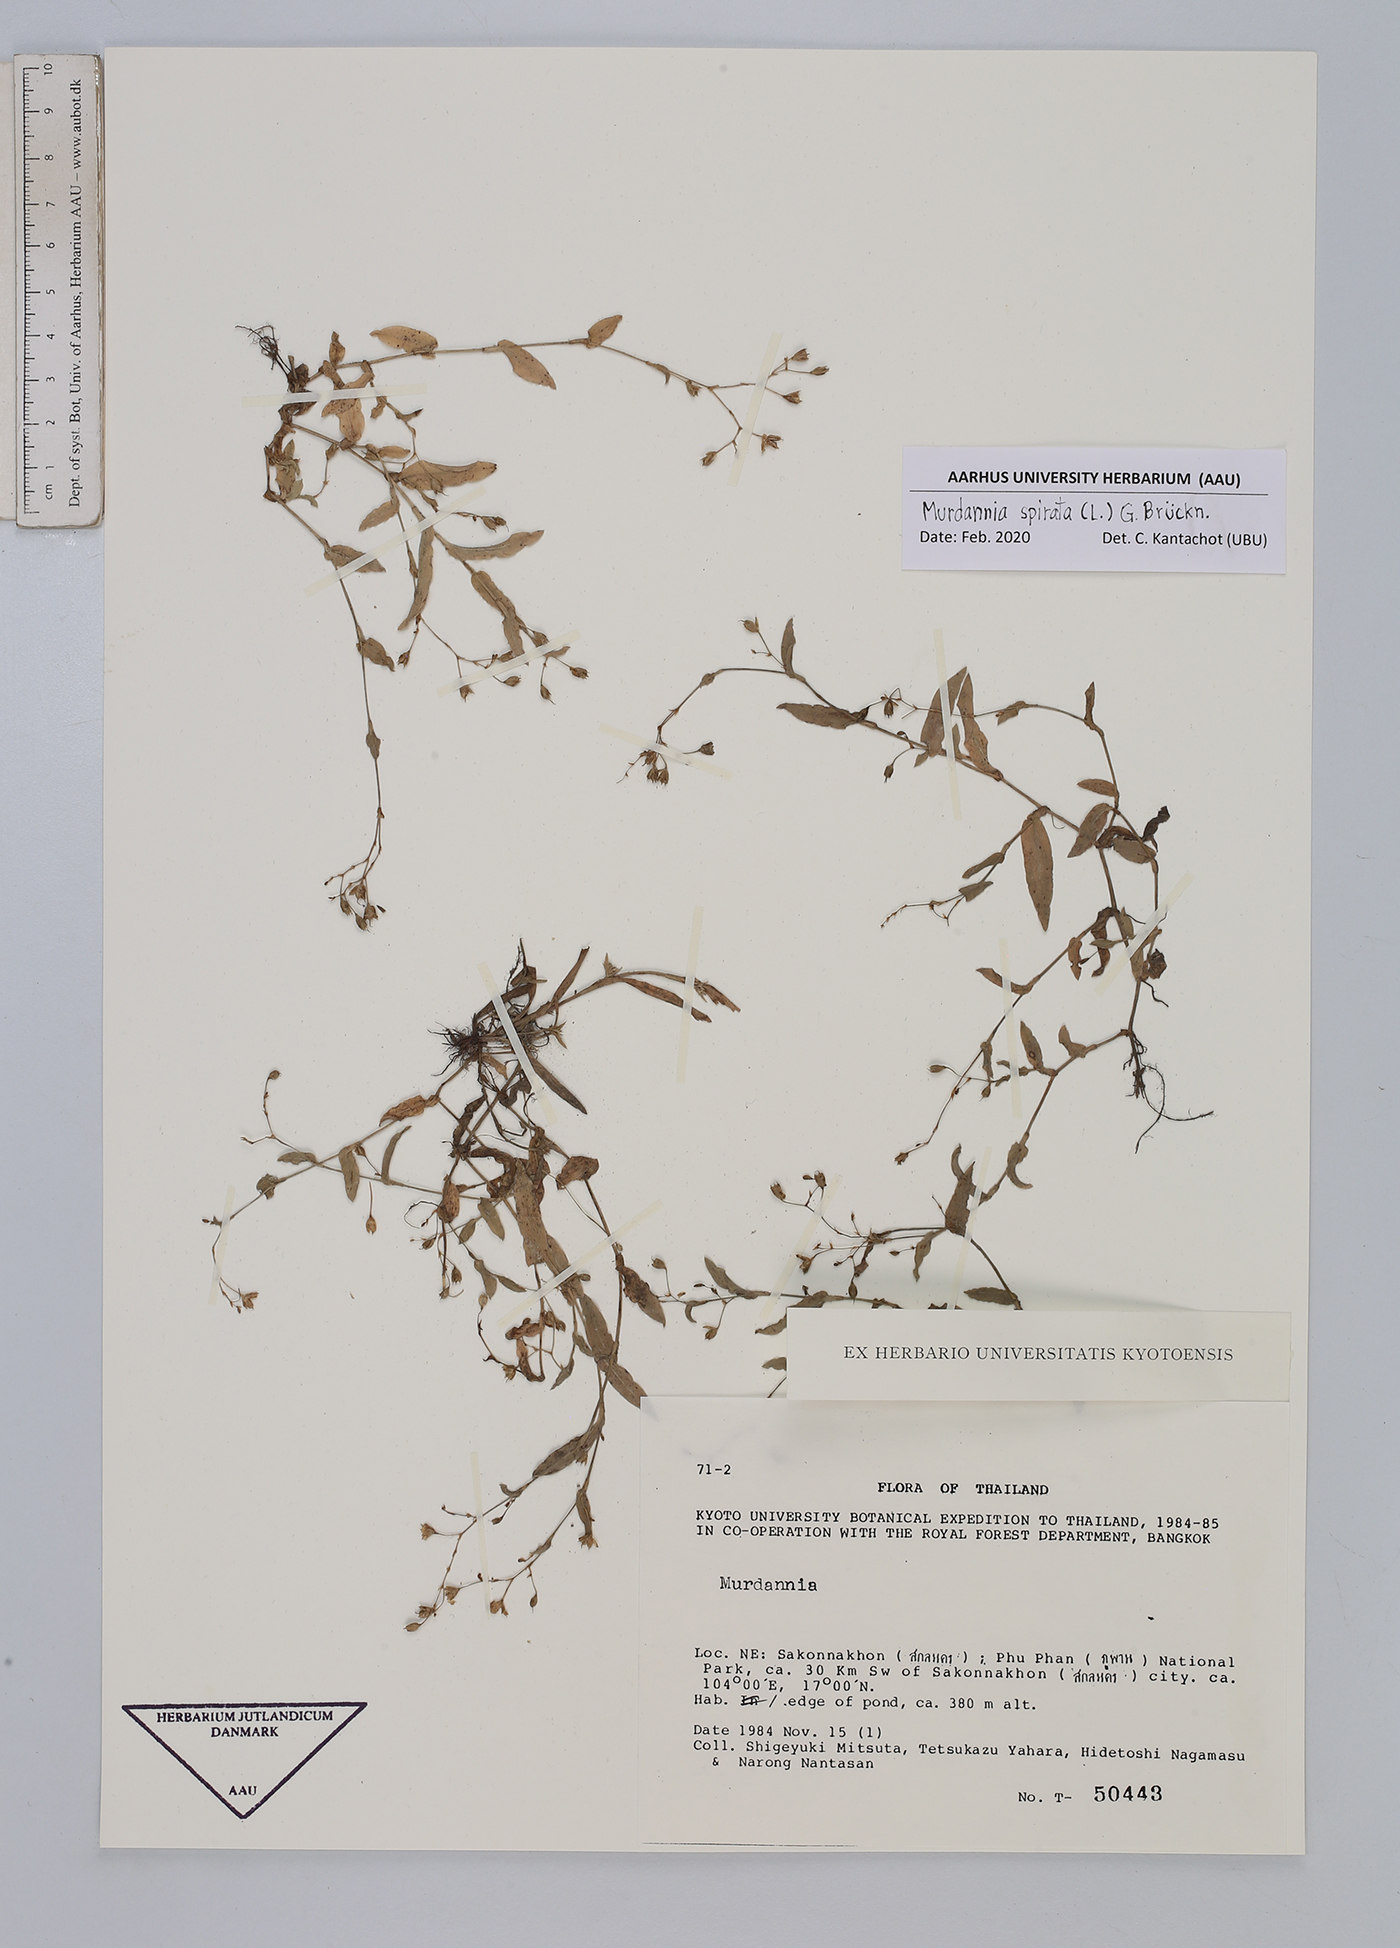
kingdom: Plantae
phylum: Tracheophyta
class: Liliopsida
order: Commelinales
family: Commelinaceae
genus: Murdannia
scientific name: Murdannia spirata
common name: Asiatic dewflower
